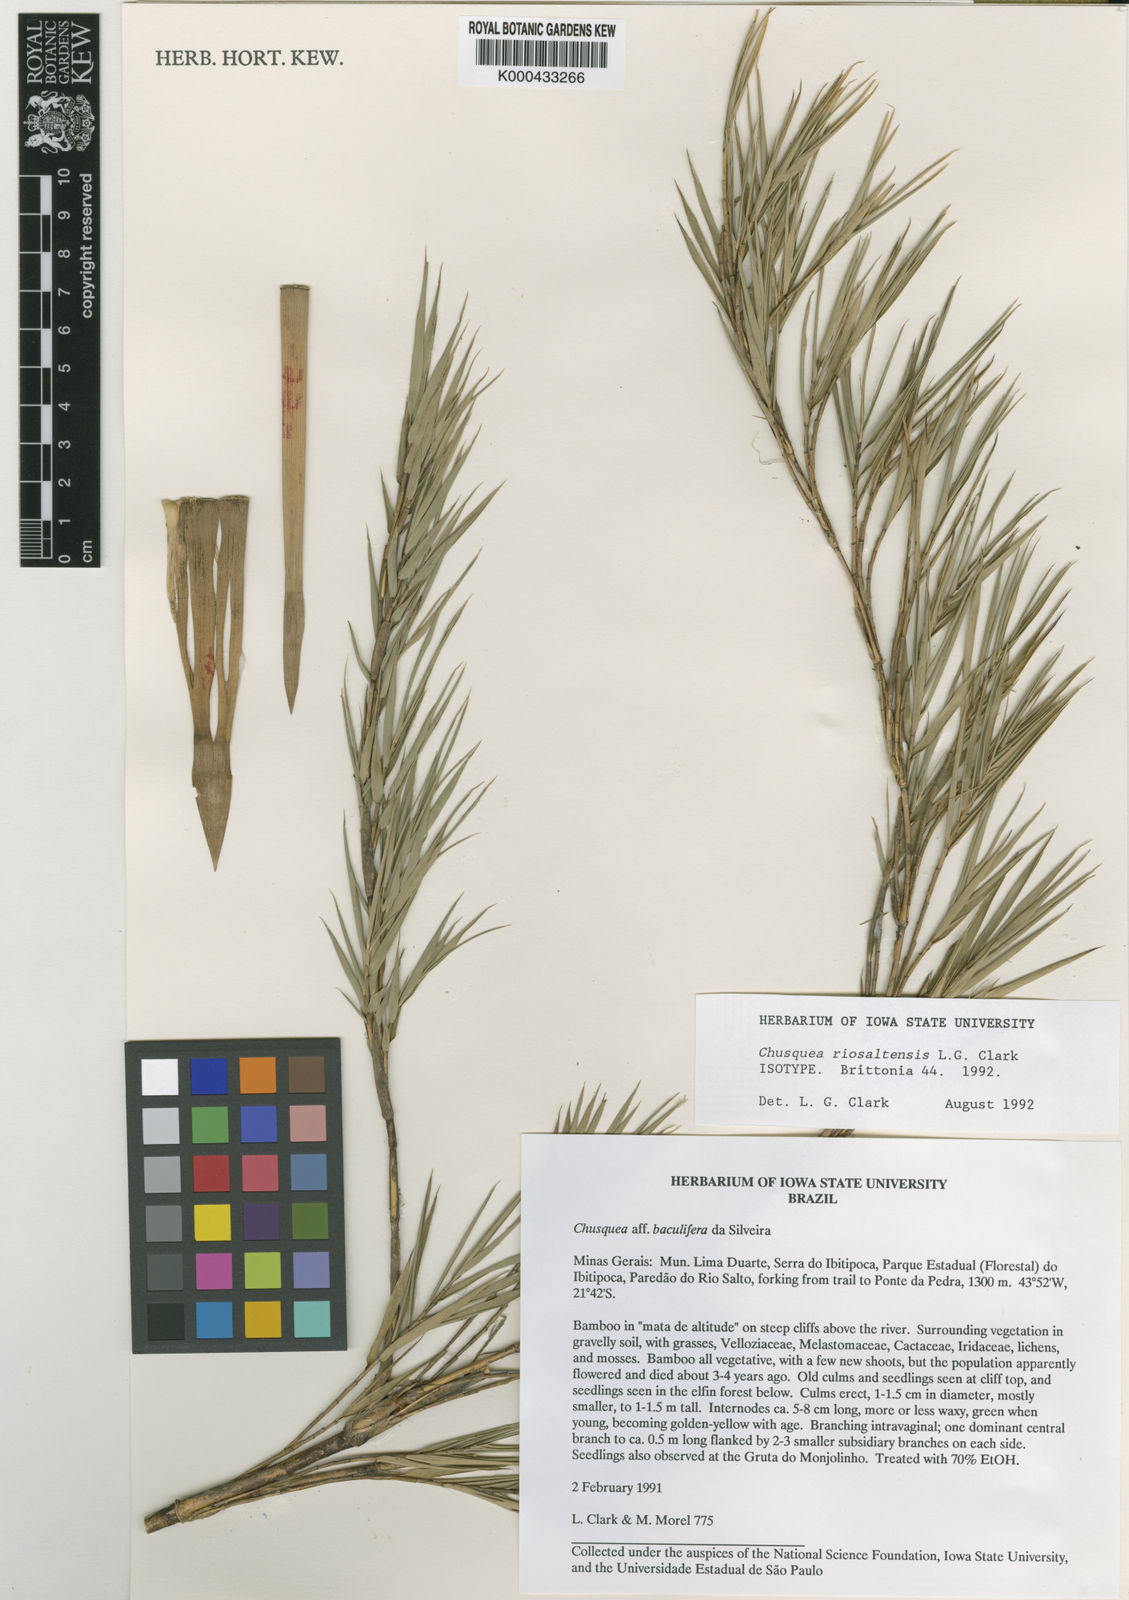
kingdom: Plantae
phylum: Tracheophyta
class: Liliopsida
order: Poales
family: Poaceae
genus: Chusquea
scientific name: Chusquea riosaltensis
